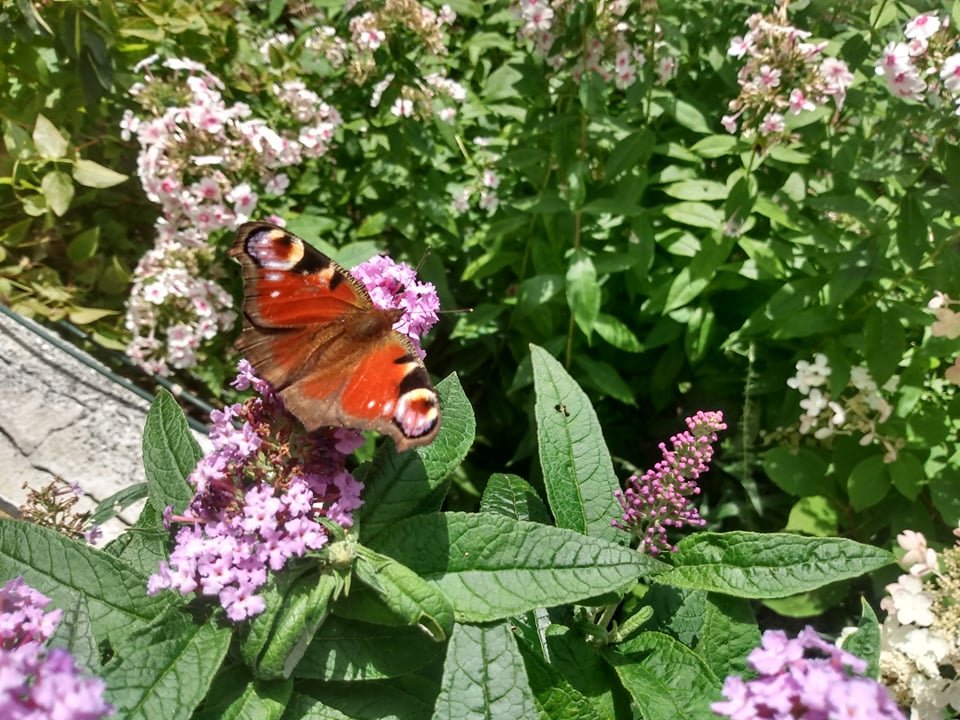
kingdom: Animalia
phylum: Arthropoda
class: Insecta
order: Lepidoptera
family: Nymphalidae
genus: Aglais
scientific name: Aglais io
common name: European Peacock
